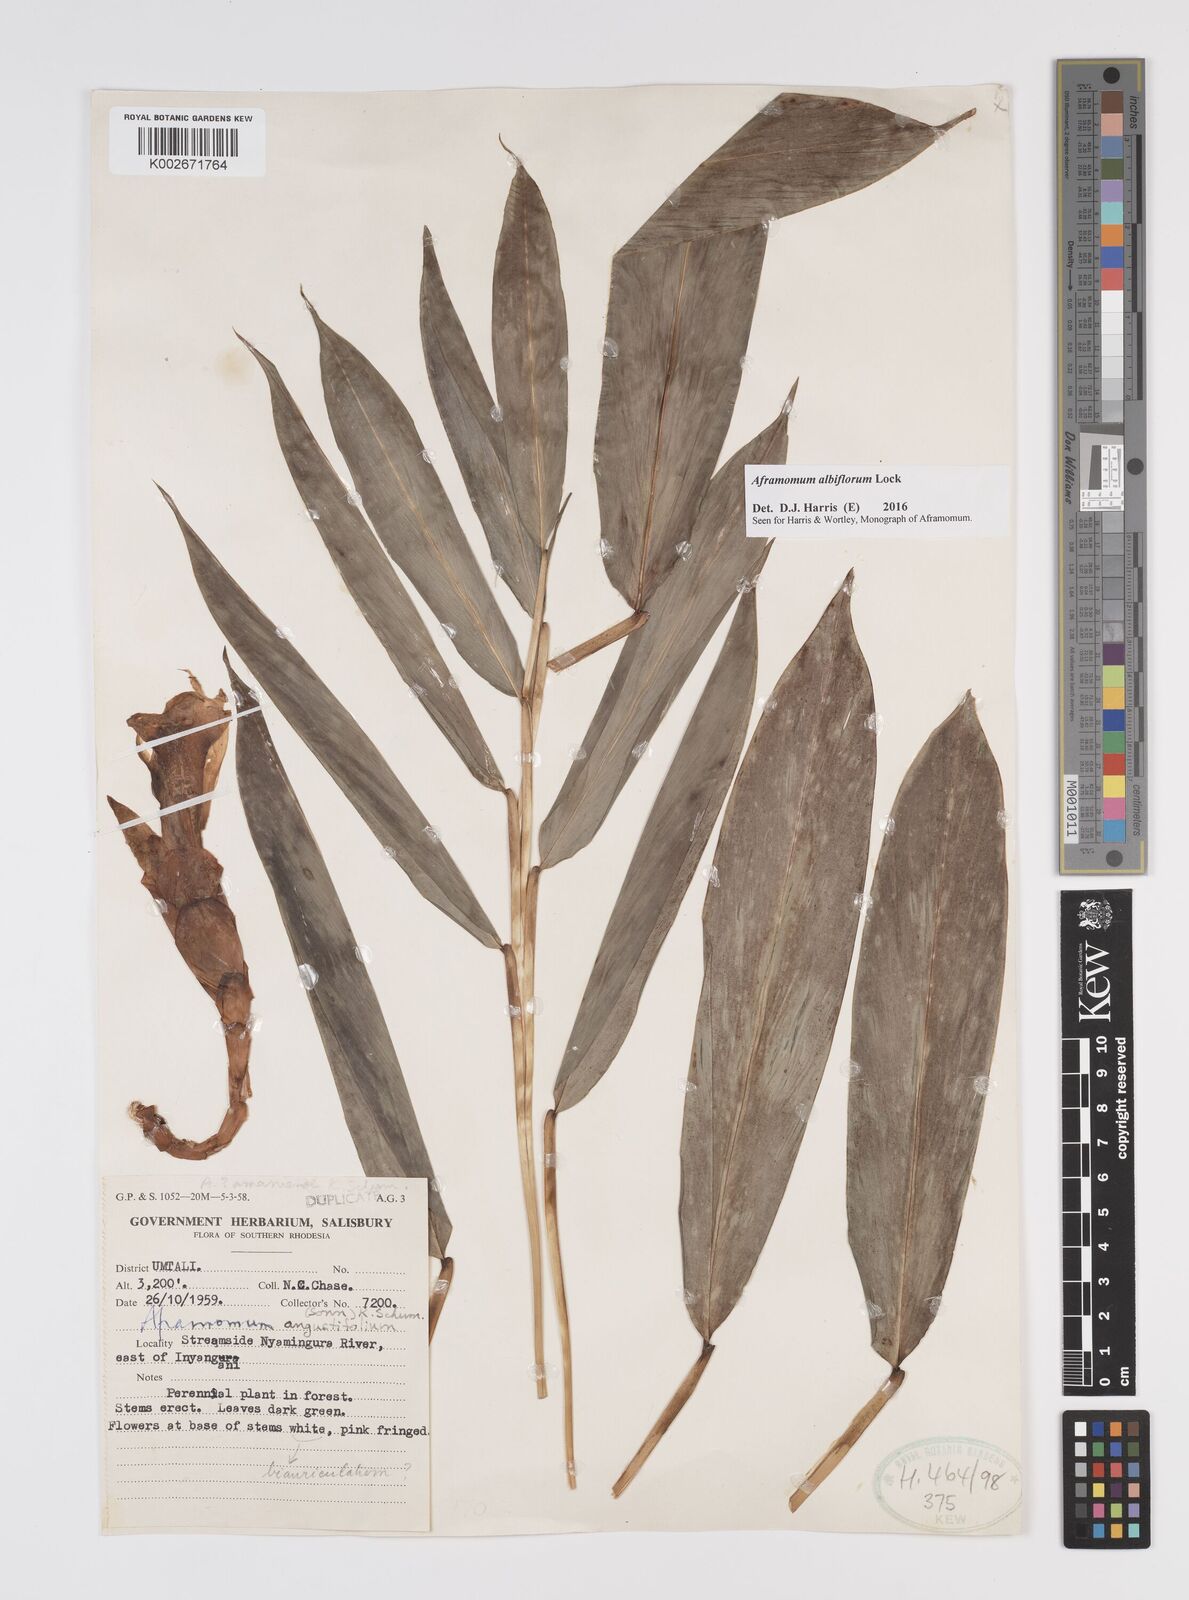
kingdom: Plantae
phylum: Tracheophyta
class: Liliopsida
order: Zingiberales
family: Zingiberaceae
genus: Aframomum
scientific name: Aframomum albiflorum
